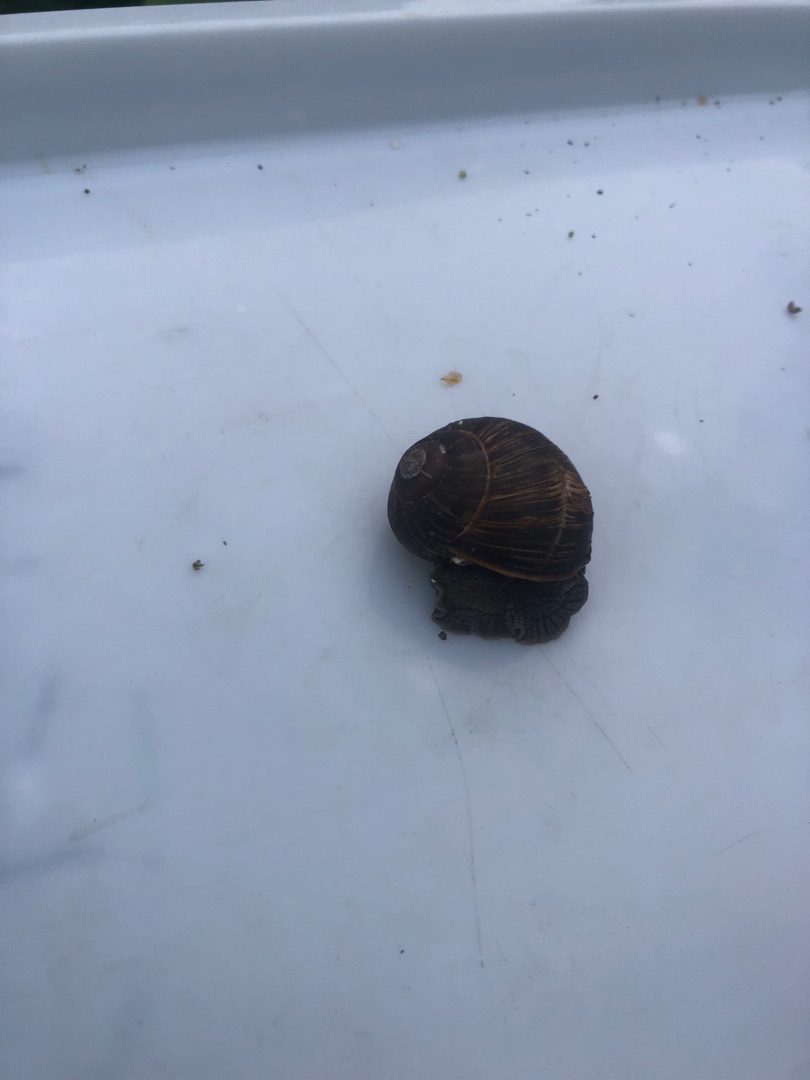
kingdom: Animalia
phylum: Mollusca
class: Gastropoda
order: Stylommatophora
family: Helicidae
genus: Helix
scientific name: Helix pomatia
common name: Vinbjergsnegl
